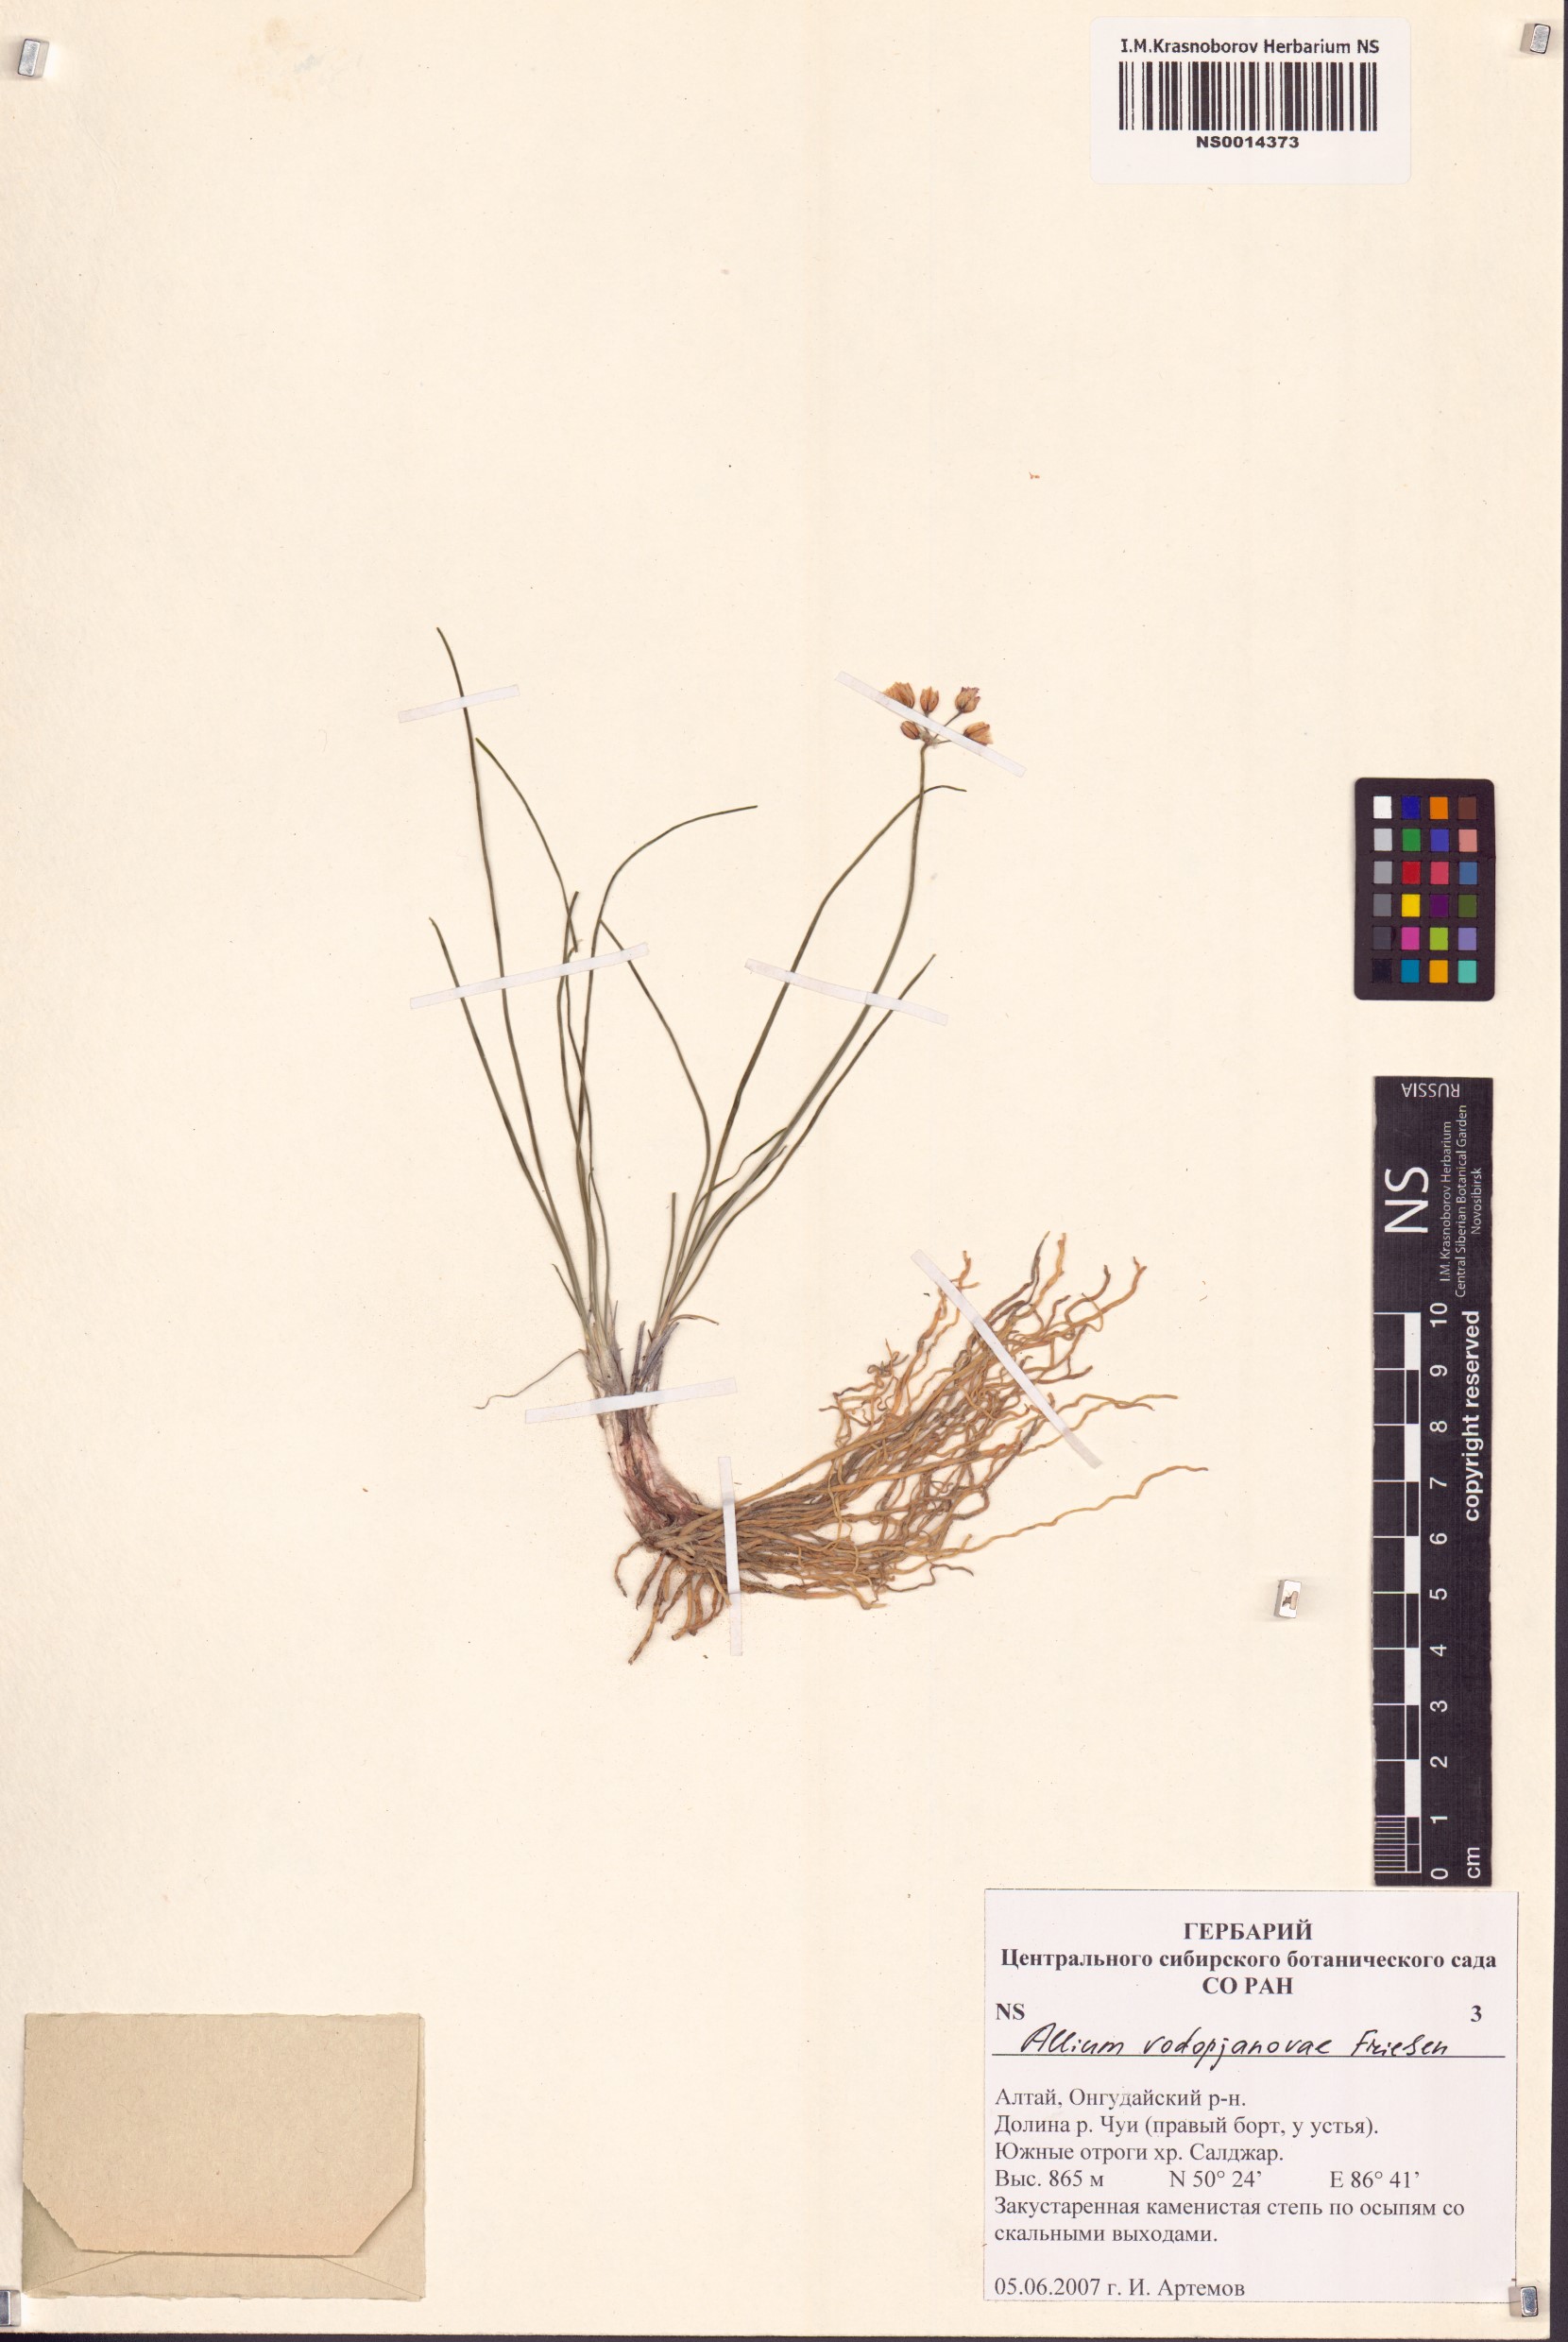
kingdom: Plantae
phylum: Tracheophyta
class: Liliopsida
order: Asparagales
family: Amaryllidaceae
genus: Allium
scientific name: Allium vodopjanovae
